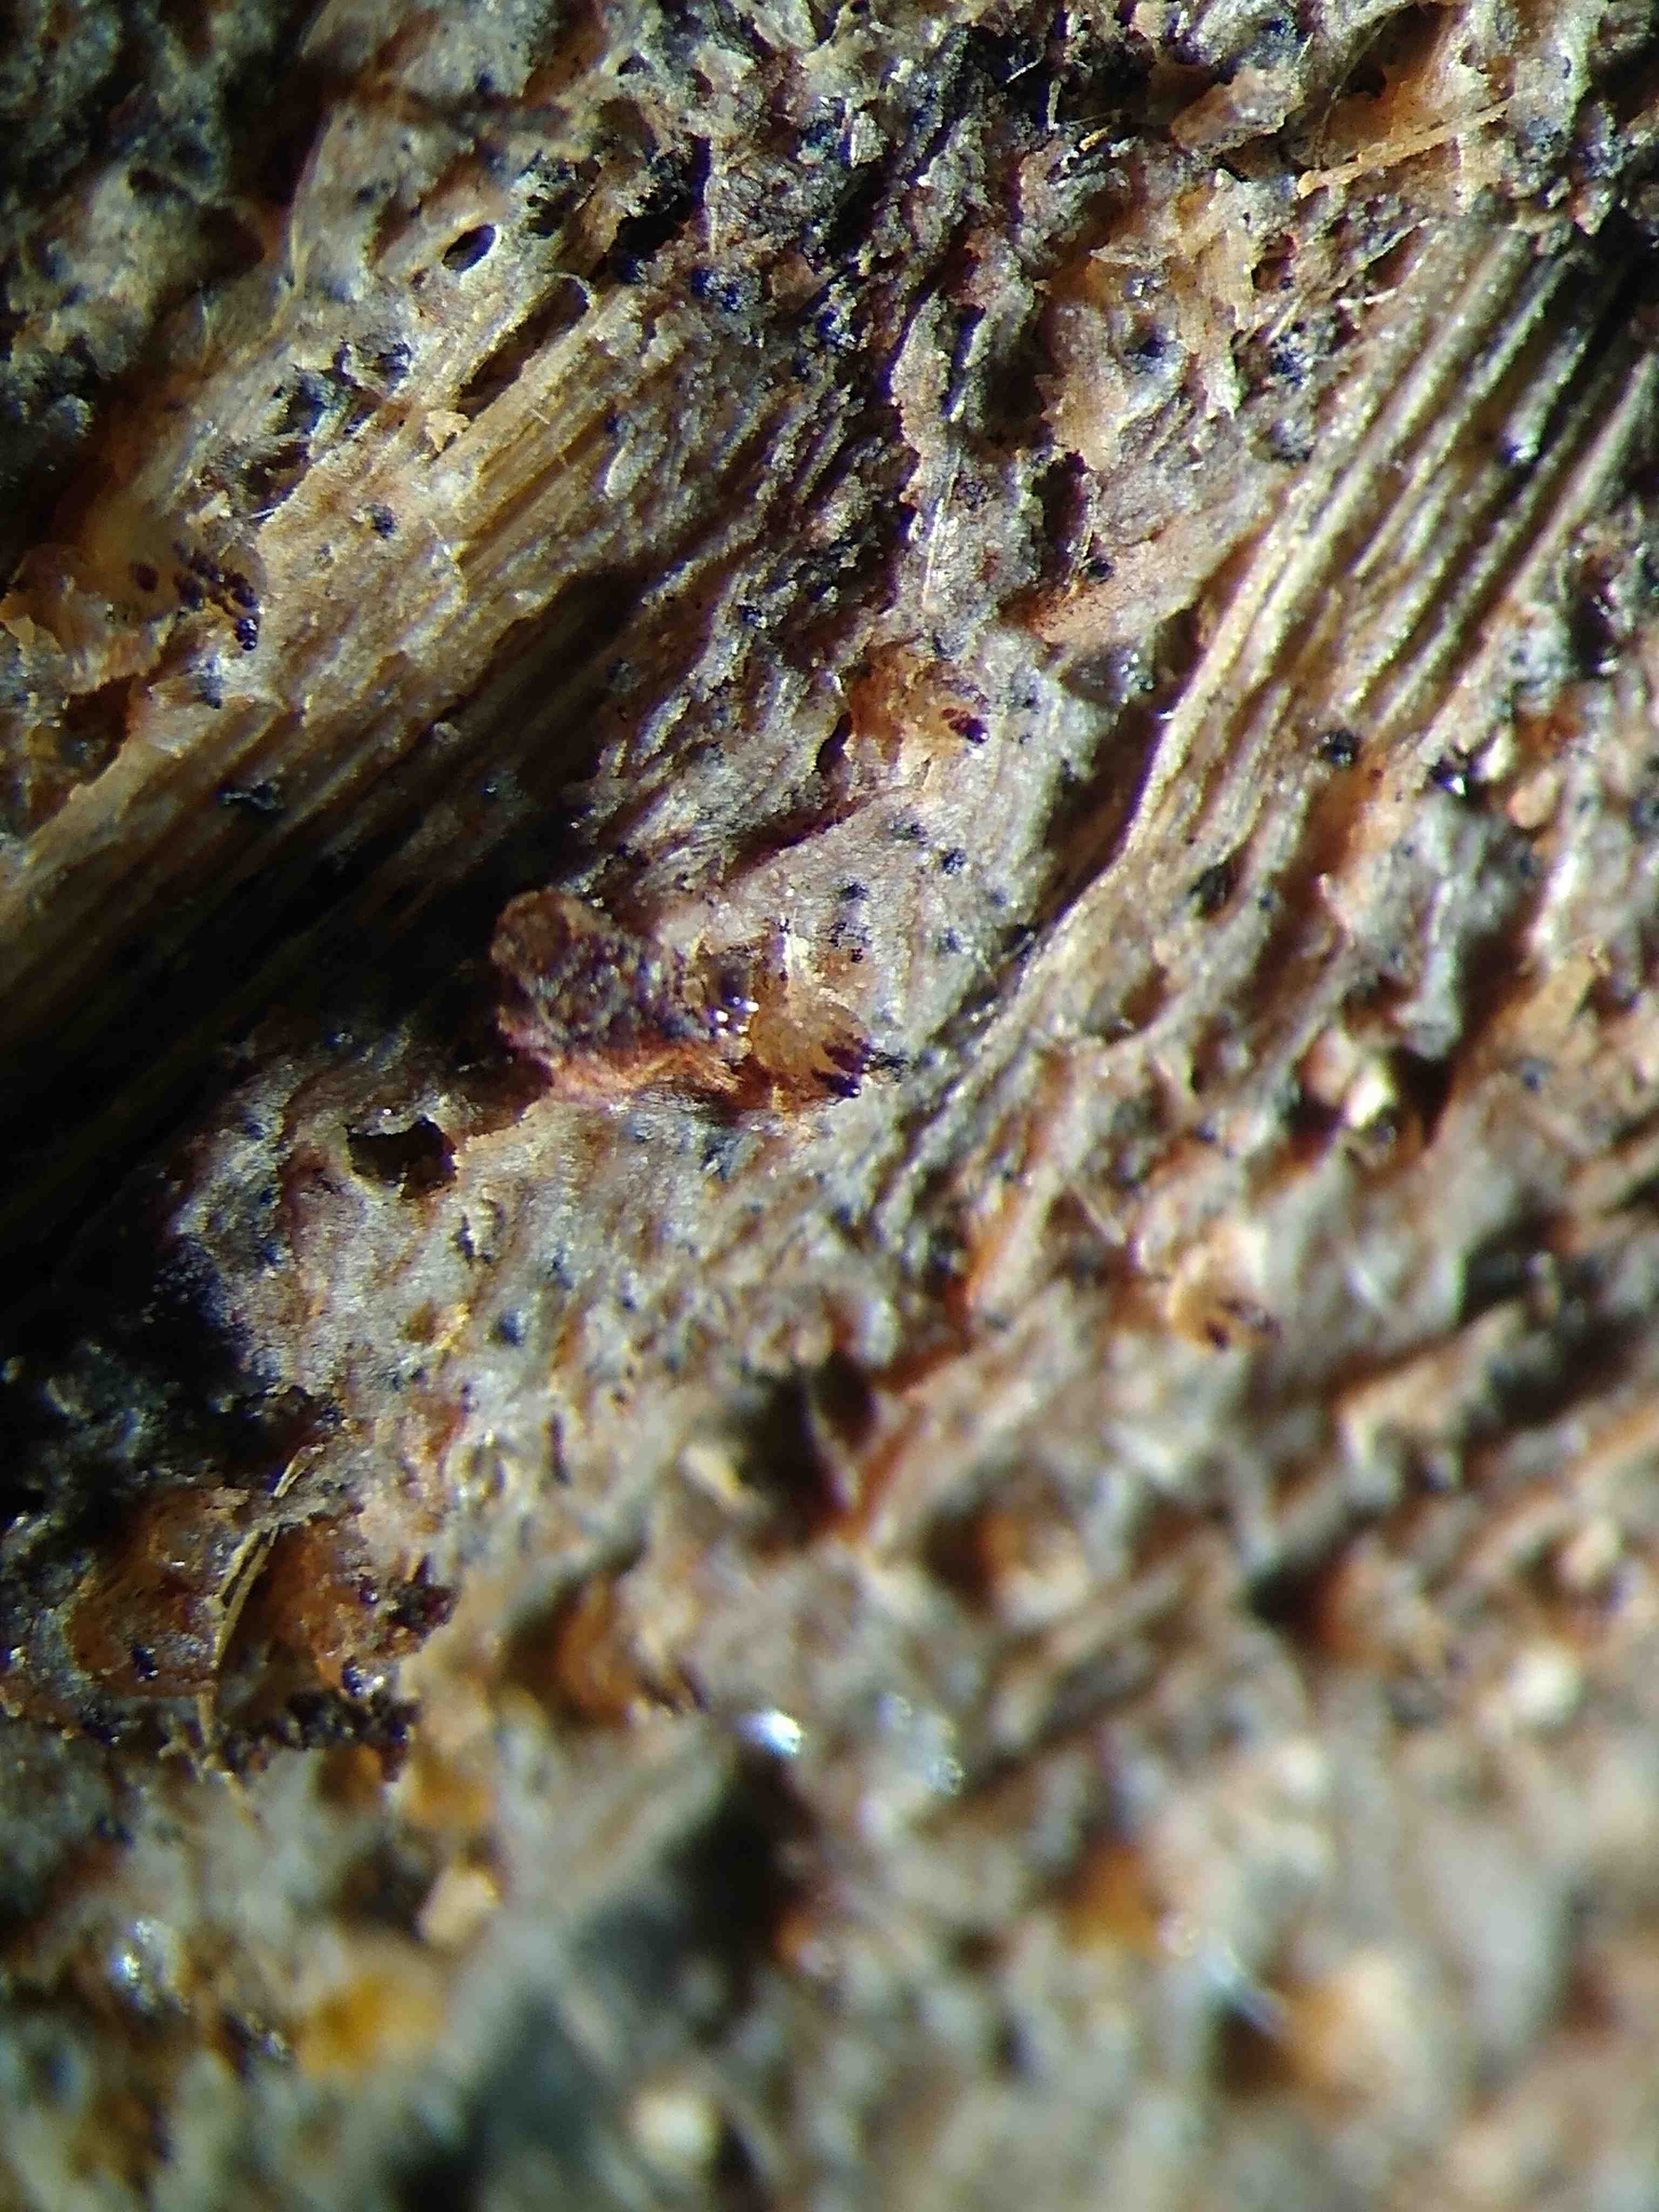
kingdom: Fungi
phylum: Ascomycota
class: Pezizomycetes
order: Pezizales
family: Ascobolaceae
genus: Ascobolus
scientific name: Ascobolus immersus
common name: storsporet prikbæger
